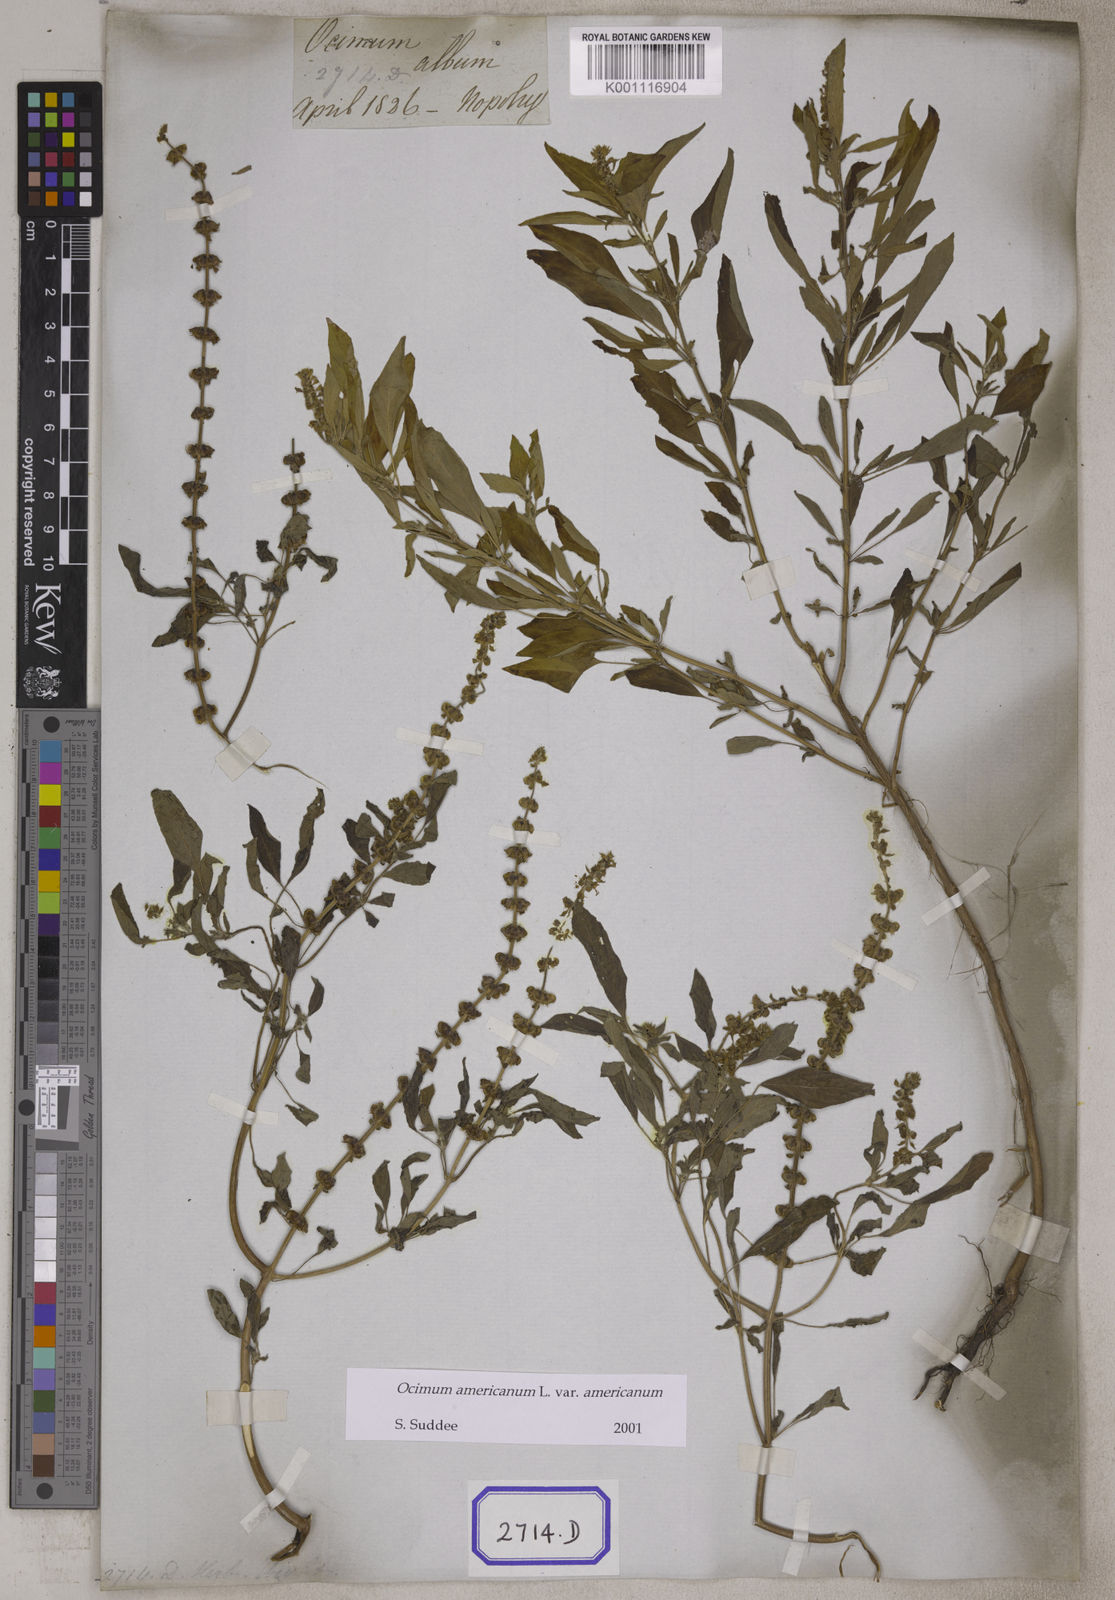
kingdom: Plantae
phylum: Tracheophyta
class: Magnoliopsida
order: Lamiales
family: Lamiaceae
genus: Ocimum
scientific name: Ocimum americanum
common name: American basil
